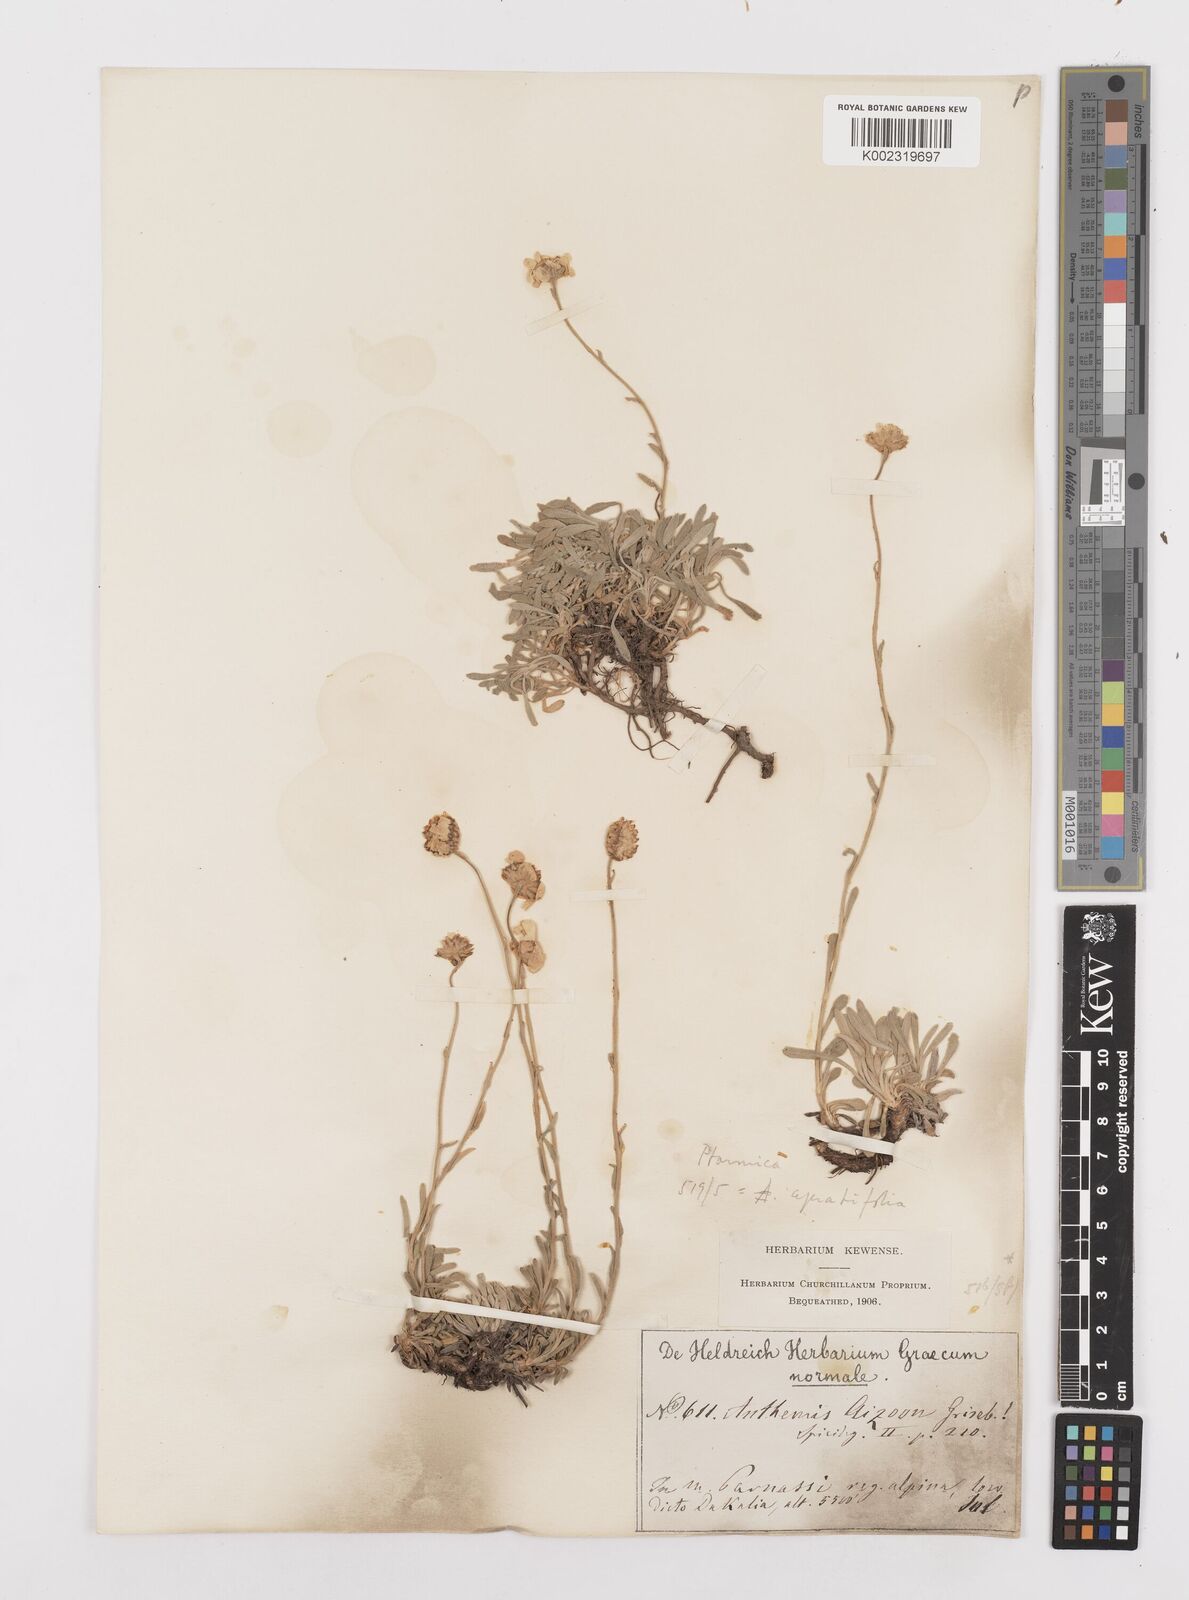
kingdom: Plantae
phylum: Tracheophyta
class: Magnoliopsida
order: Asterales
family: Asteraceae
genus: Achillea
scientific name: Achillea ageratifolia
